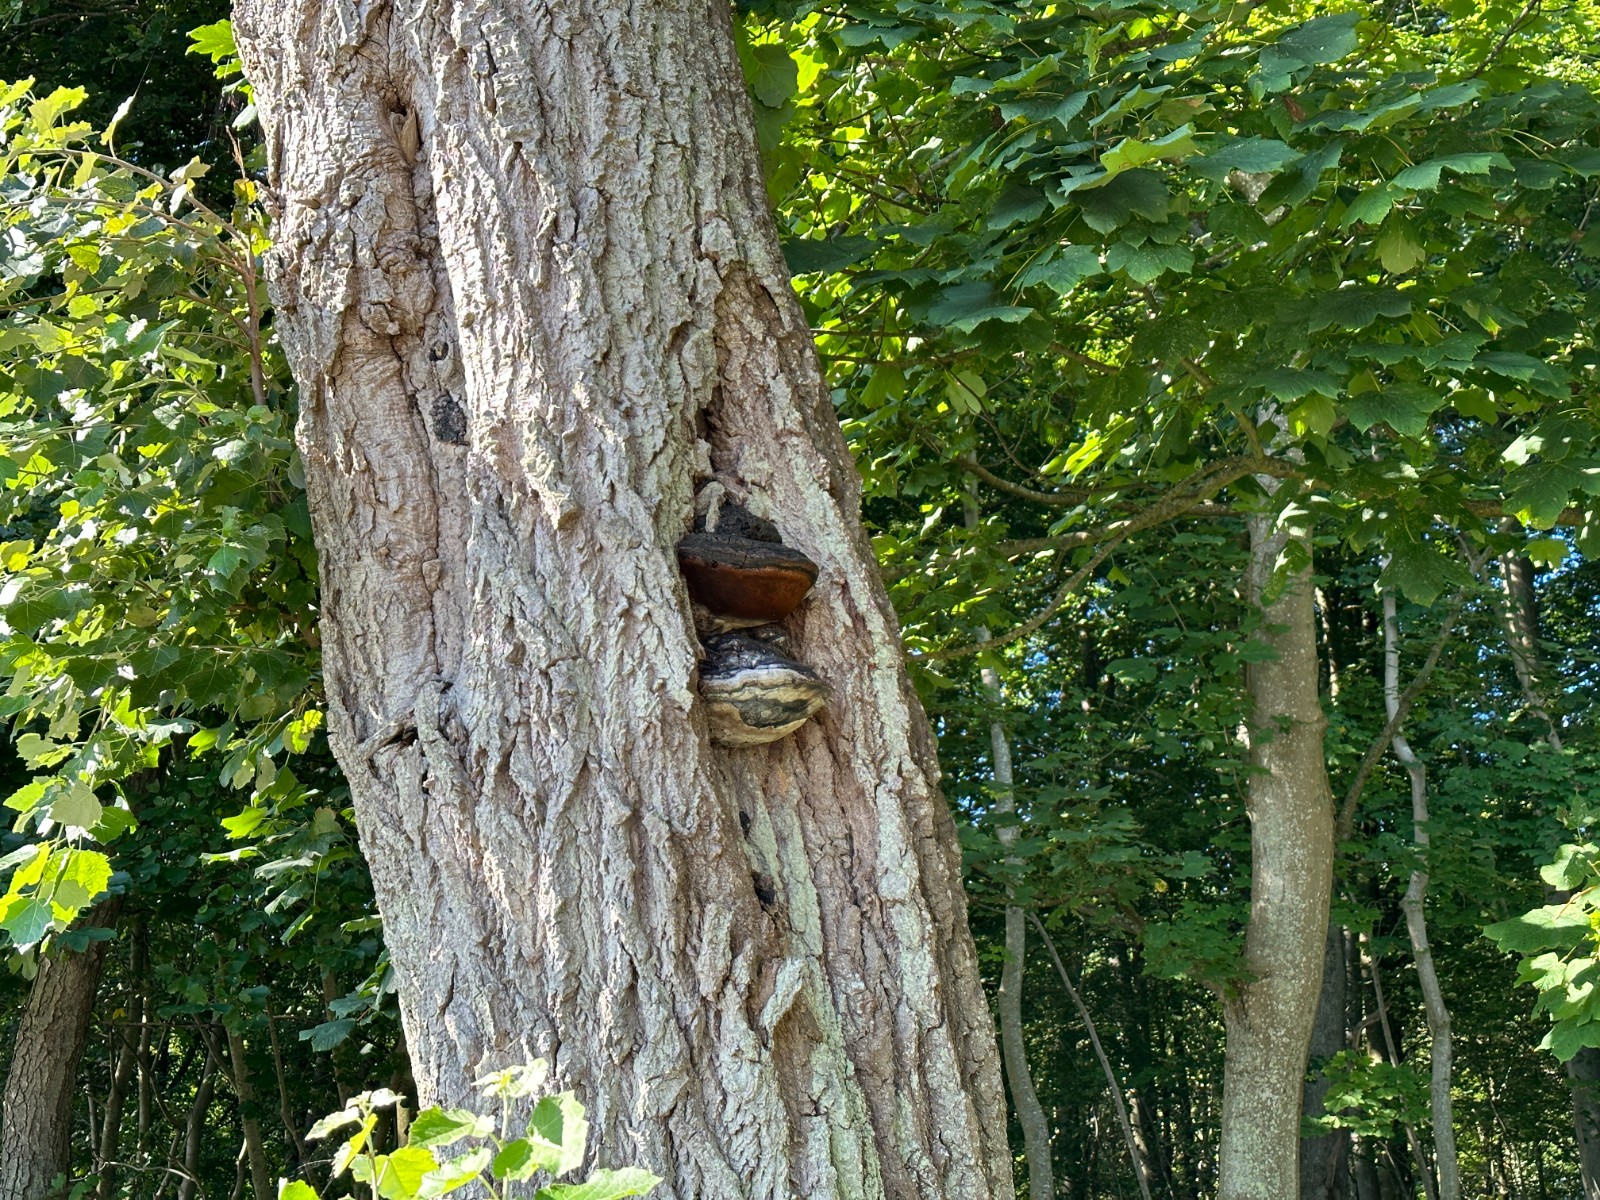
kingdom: Fungi
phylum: Basidiomycota
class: Agaricomycetes
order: Hymenochaetales
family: Hymenochaetaceae
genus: Phellinus
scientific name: Phellinus populicola
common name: poppel-ildporesvamp
